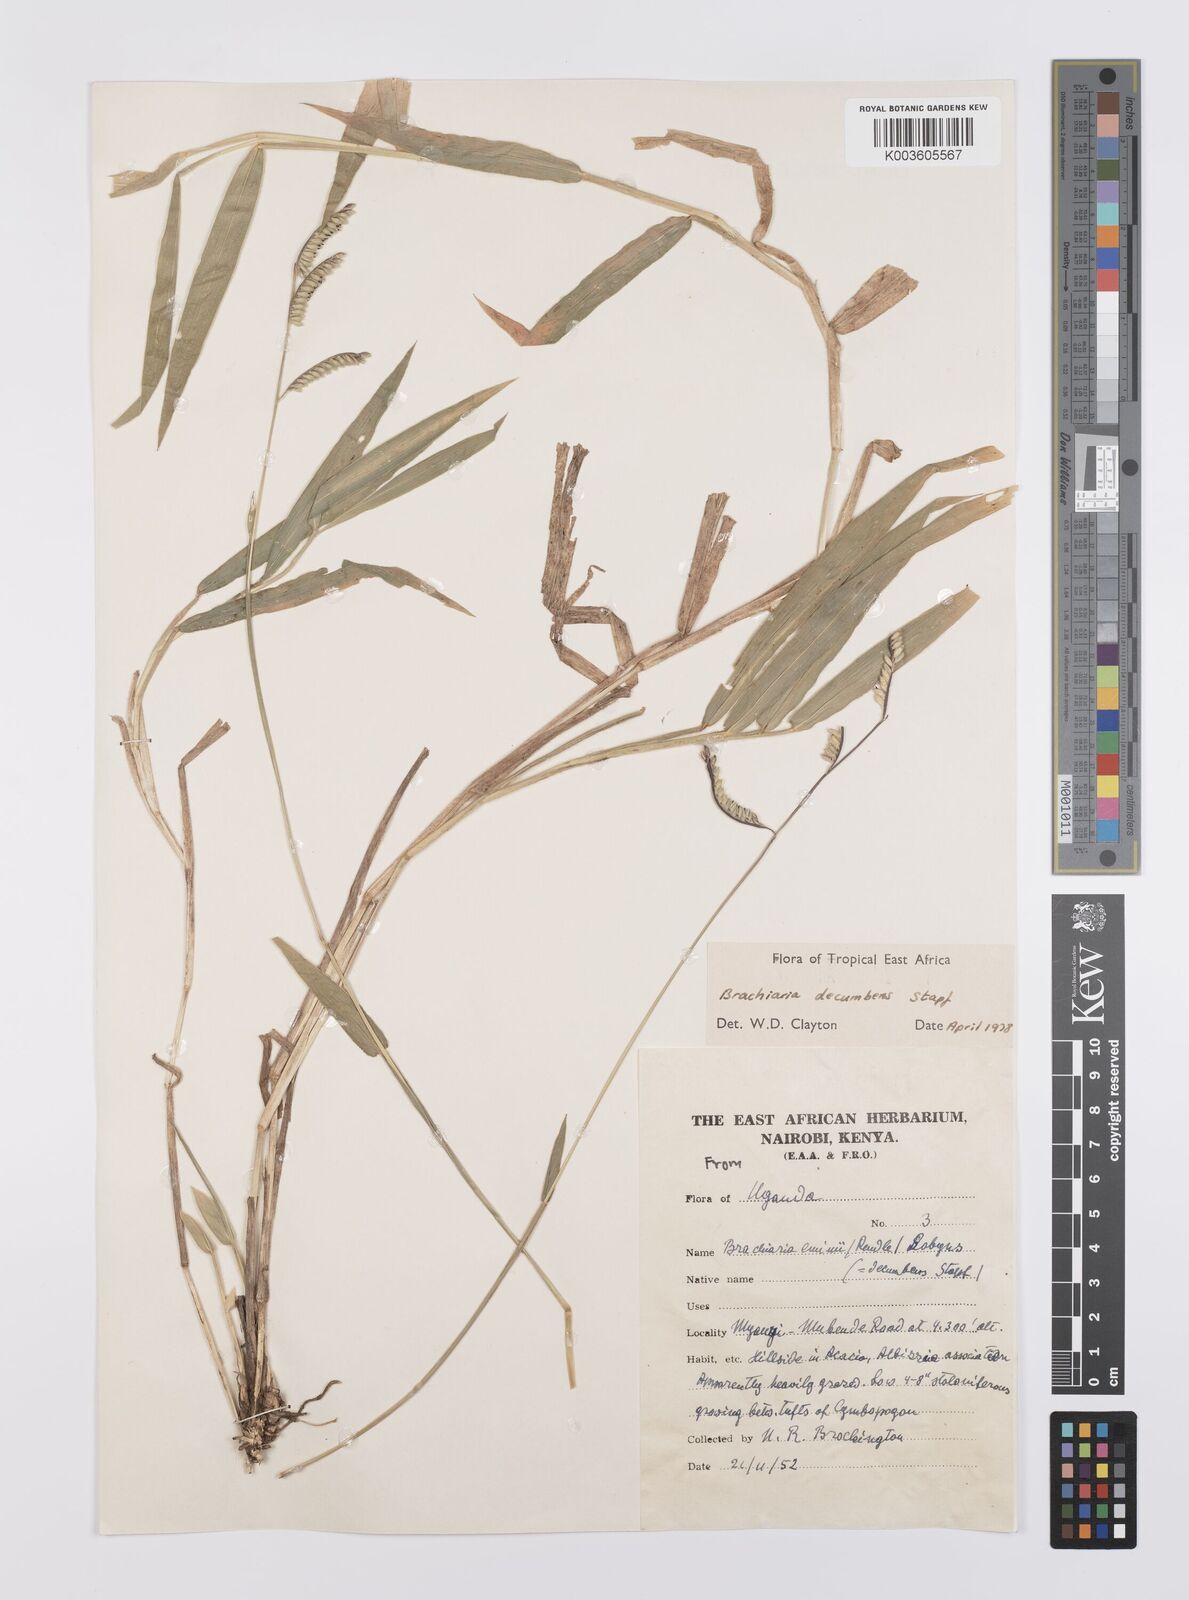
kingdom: Plantae
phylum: Tracheophyta
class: Liliopsida
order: Poales
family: Poaceae
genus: Urochloa
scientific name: Urochloa eminii
